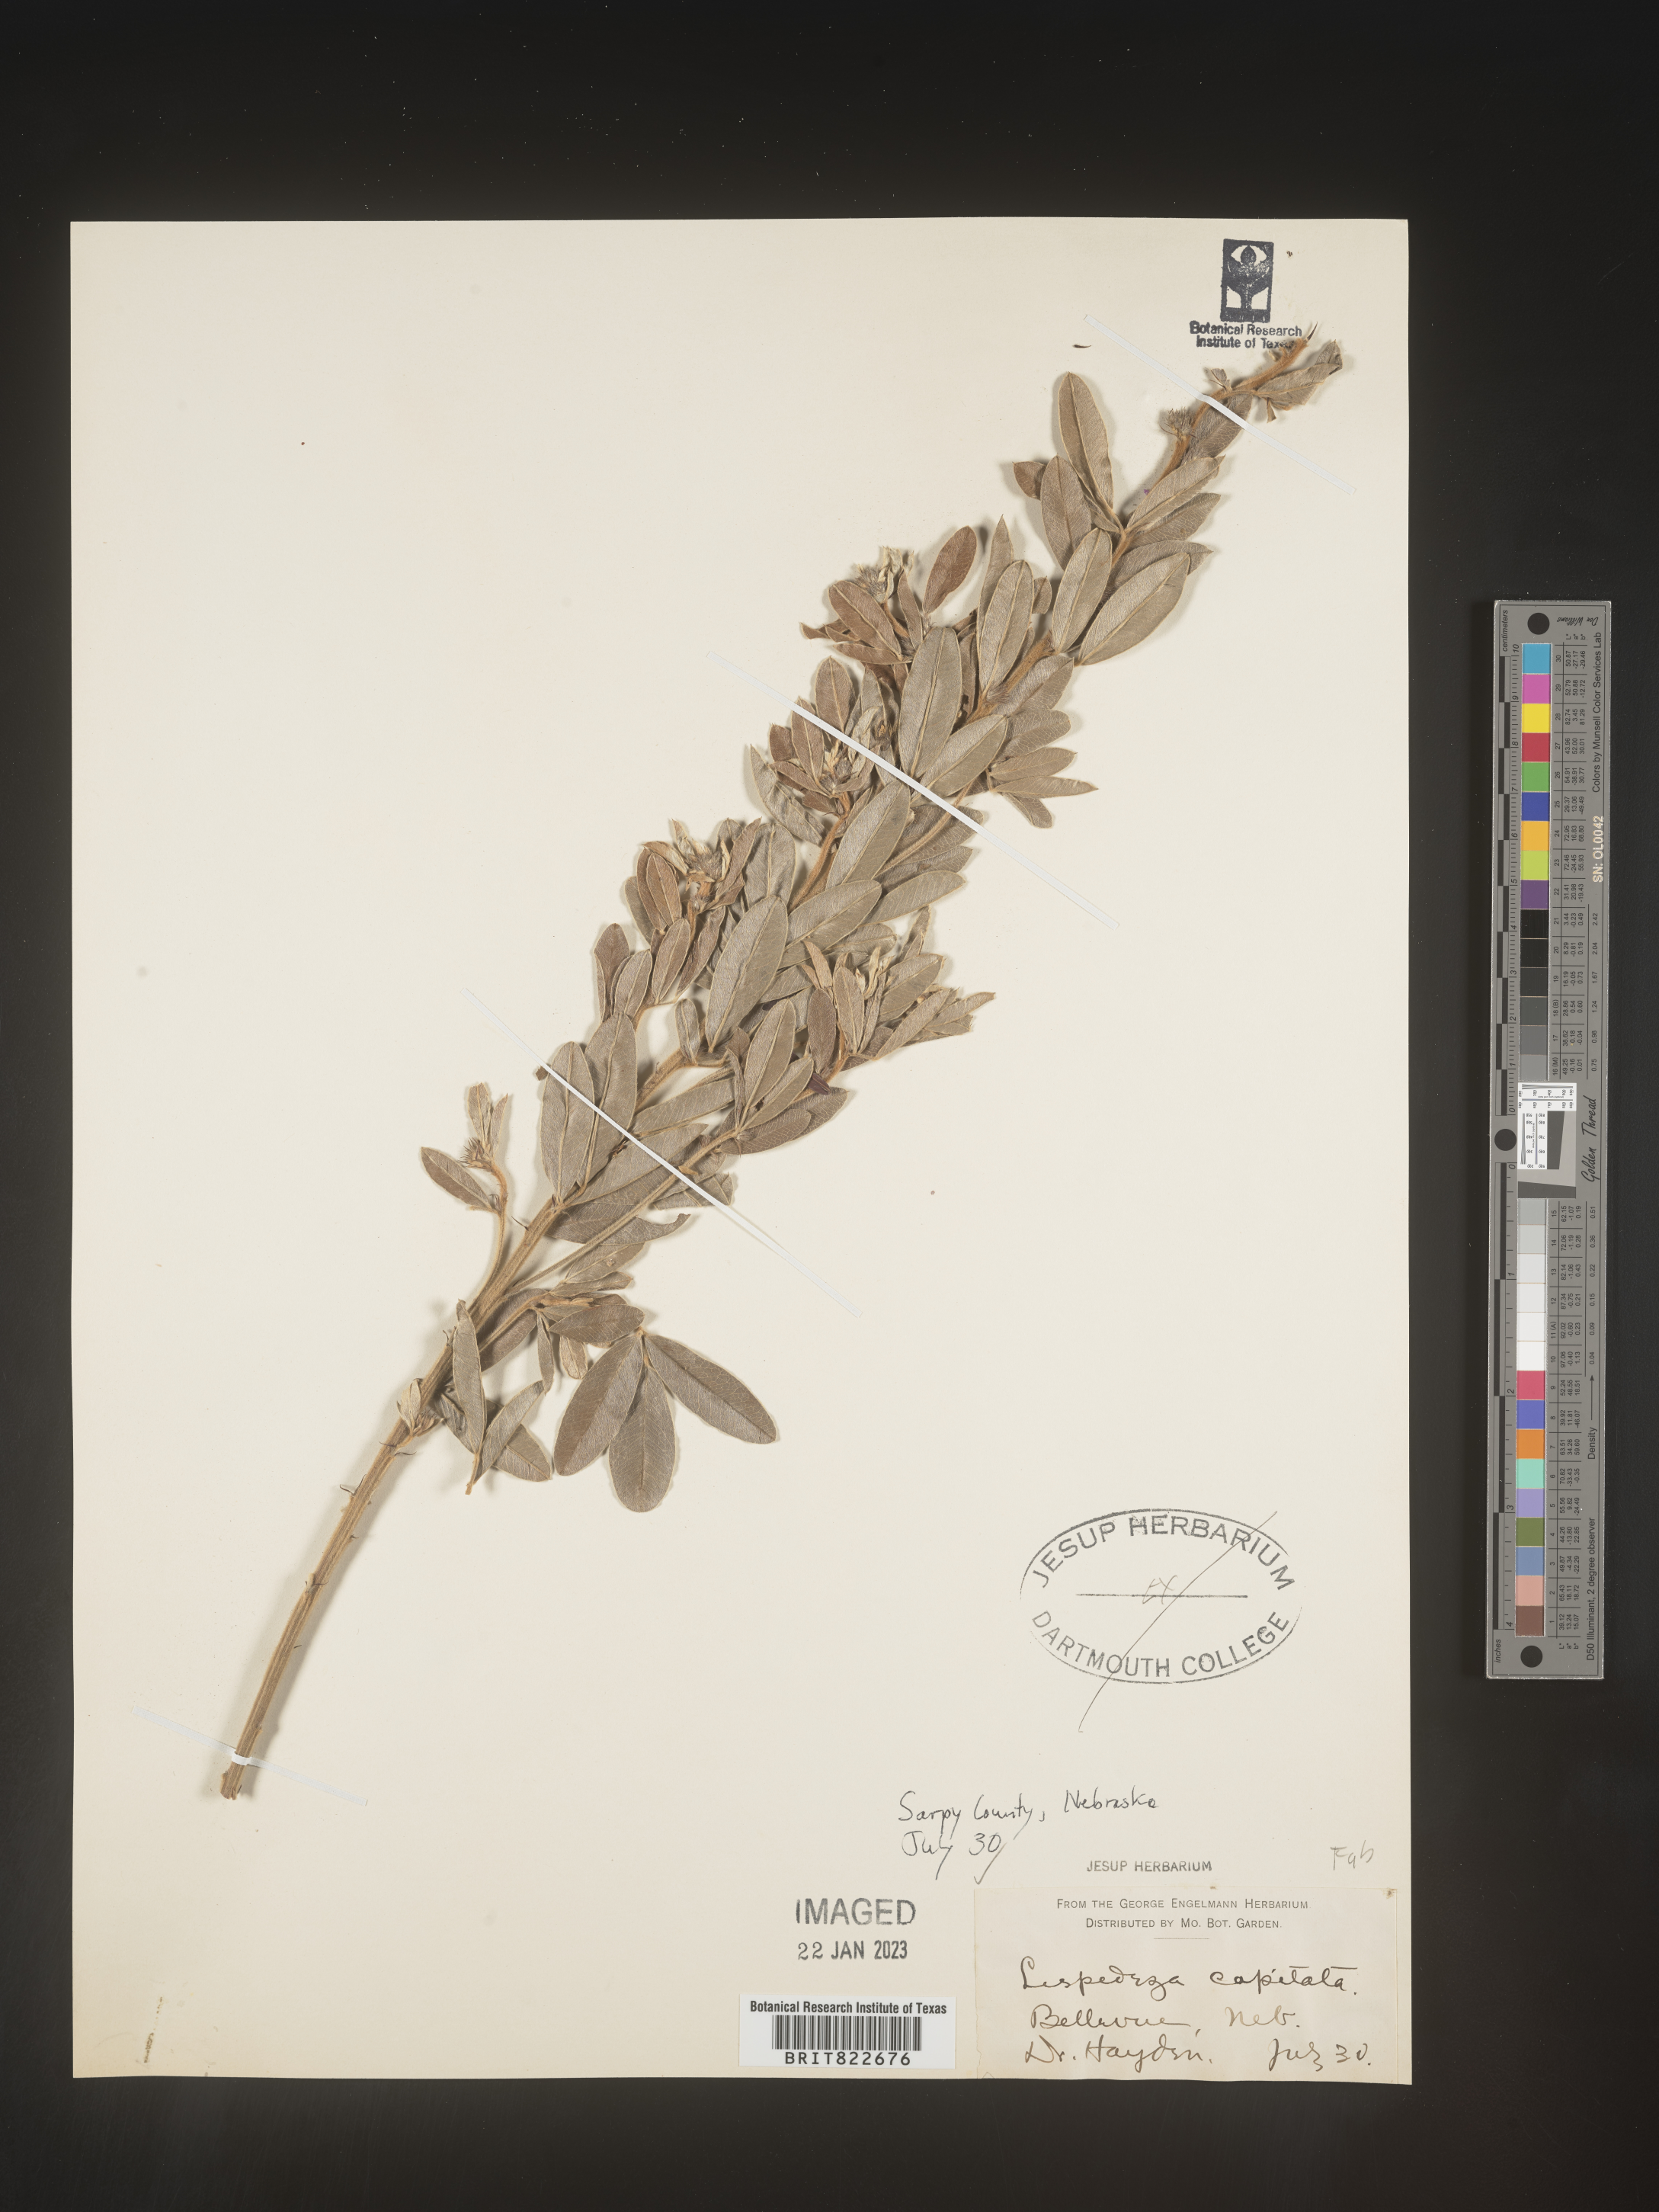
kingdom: Plantae
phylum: Tracheophyta
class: Magnoliopsida
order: Fabales
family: Fabaceae
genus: Lespedeza
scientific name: Lespedeza capitata
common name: Dusty clover
